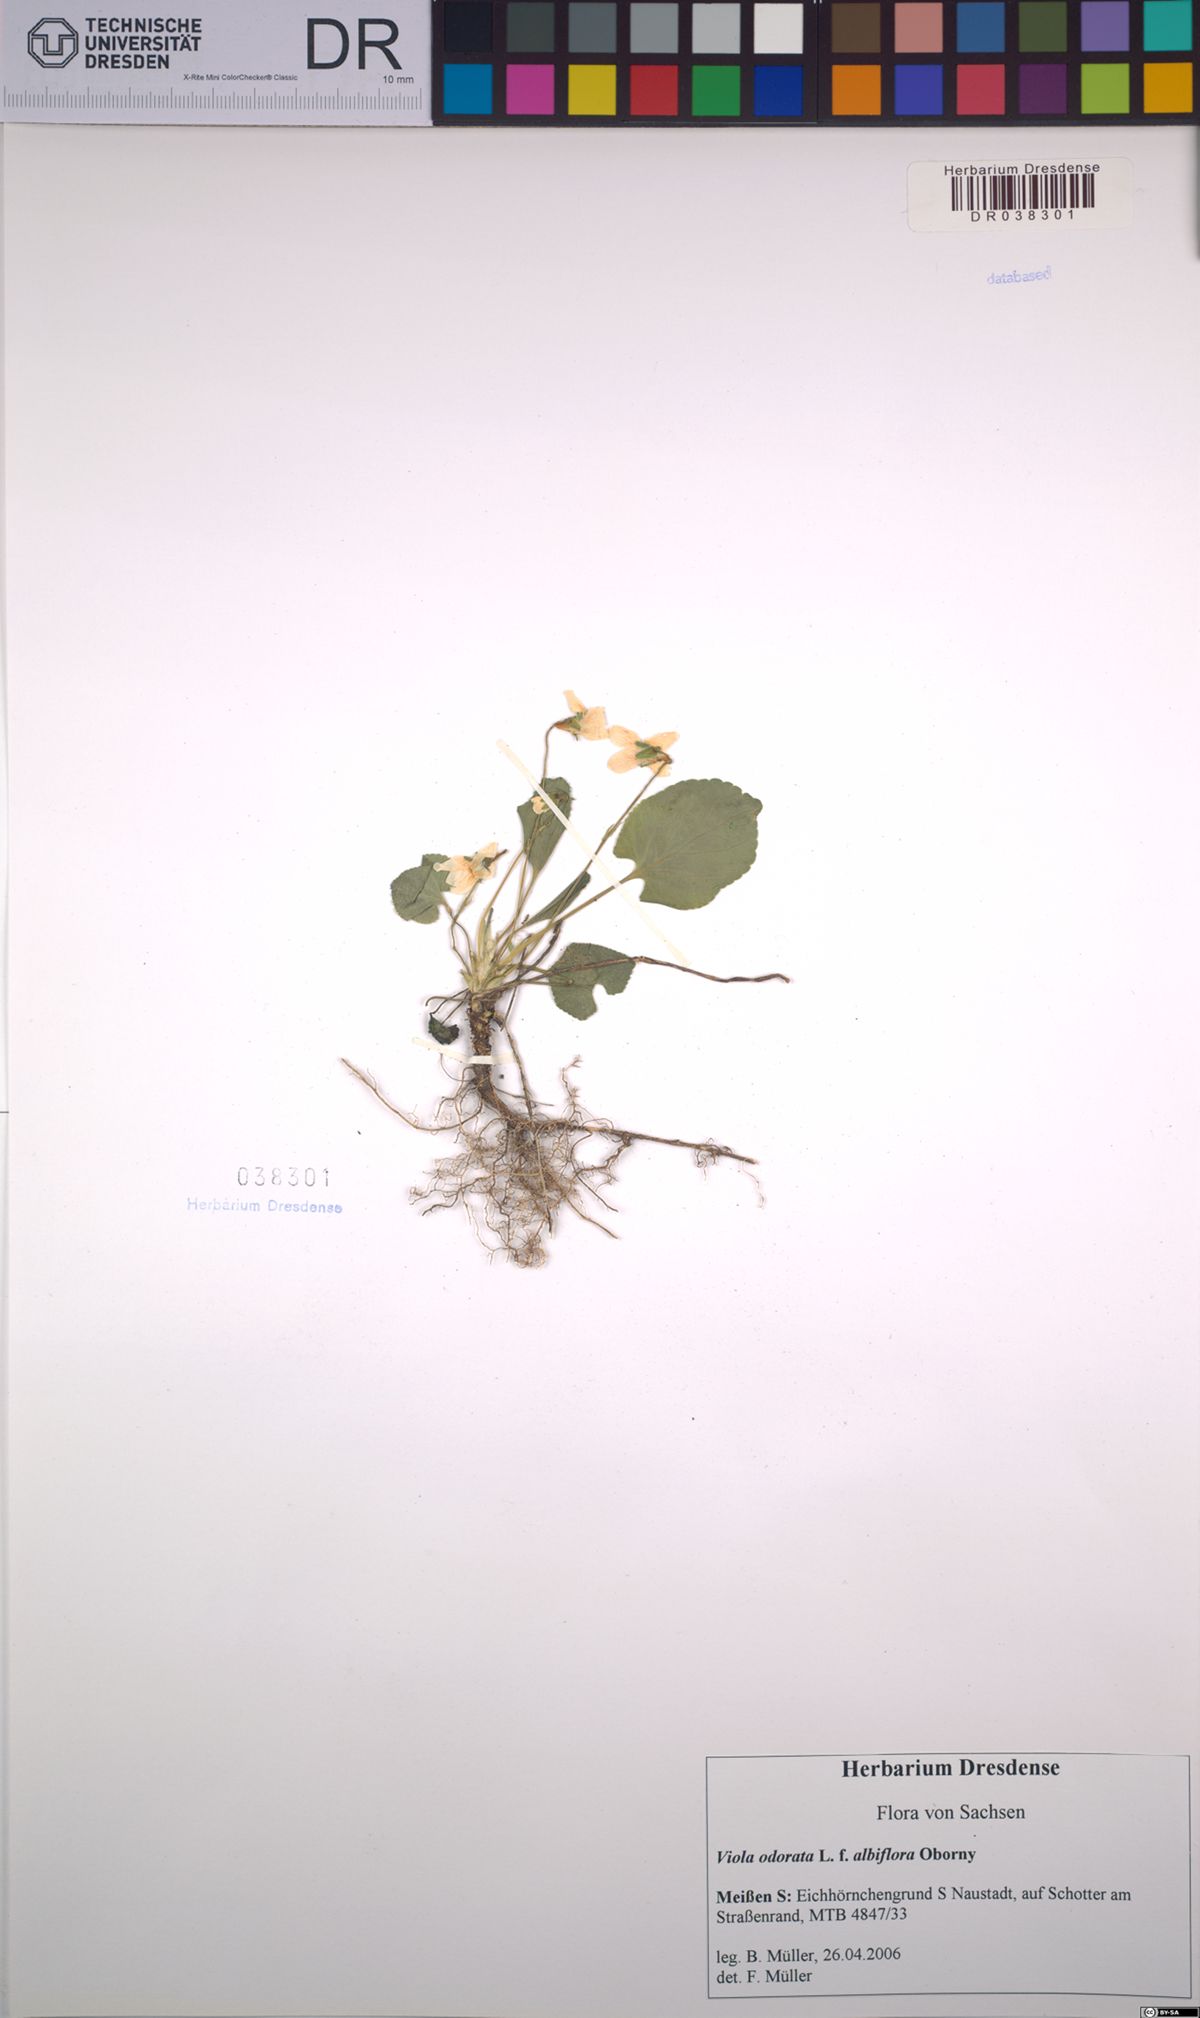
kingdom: Plantae
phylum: Tracheophyta
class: Magnoliopsida
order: Malpighiales
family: Violaceae
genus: Viola
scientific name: Viola odorata
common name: Sweet violet
